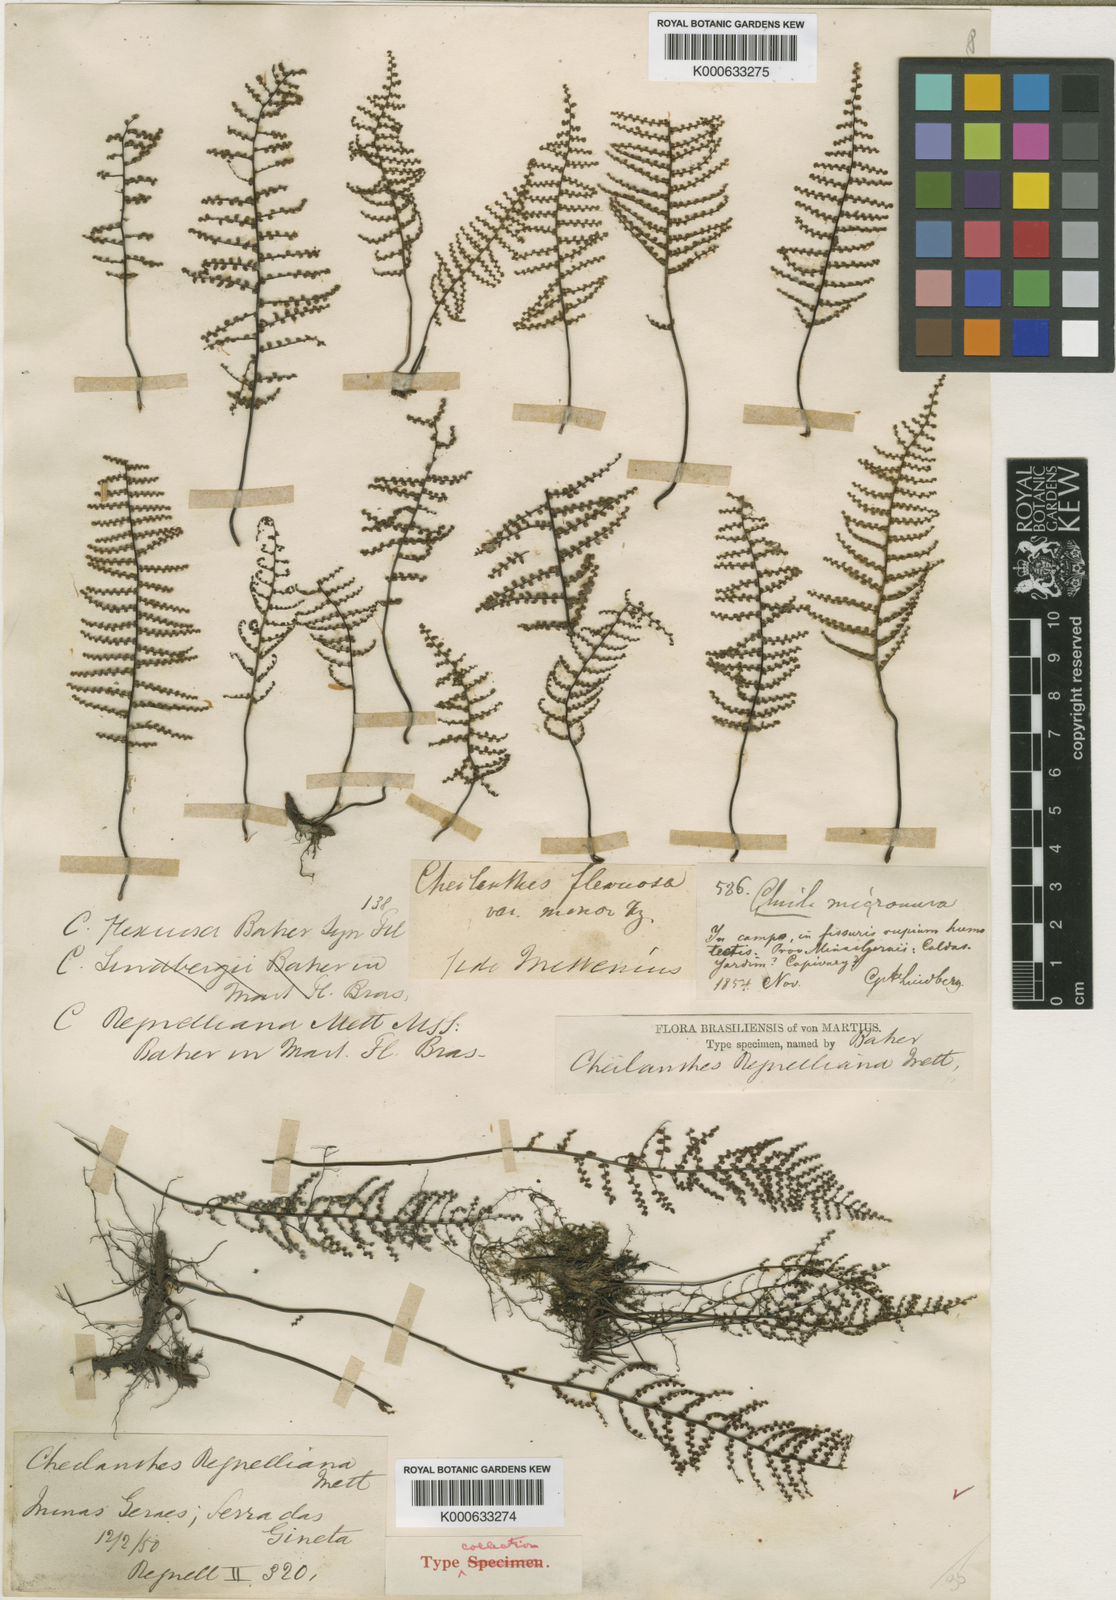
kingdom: Plantae
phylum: Tracheophyta
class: Polypodiopsida
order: Polypodiales
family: Pteridaceae
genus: Pellaea
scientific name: Pellaea regnelliana
